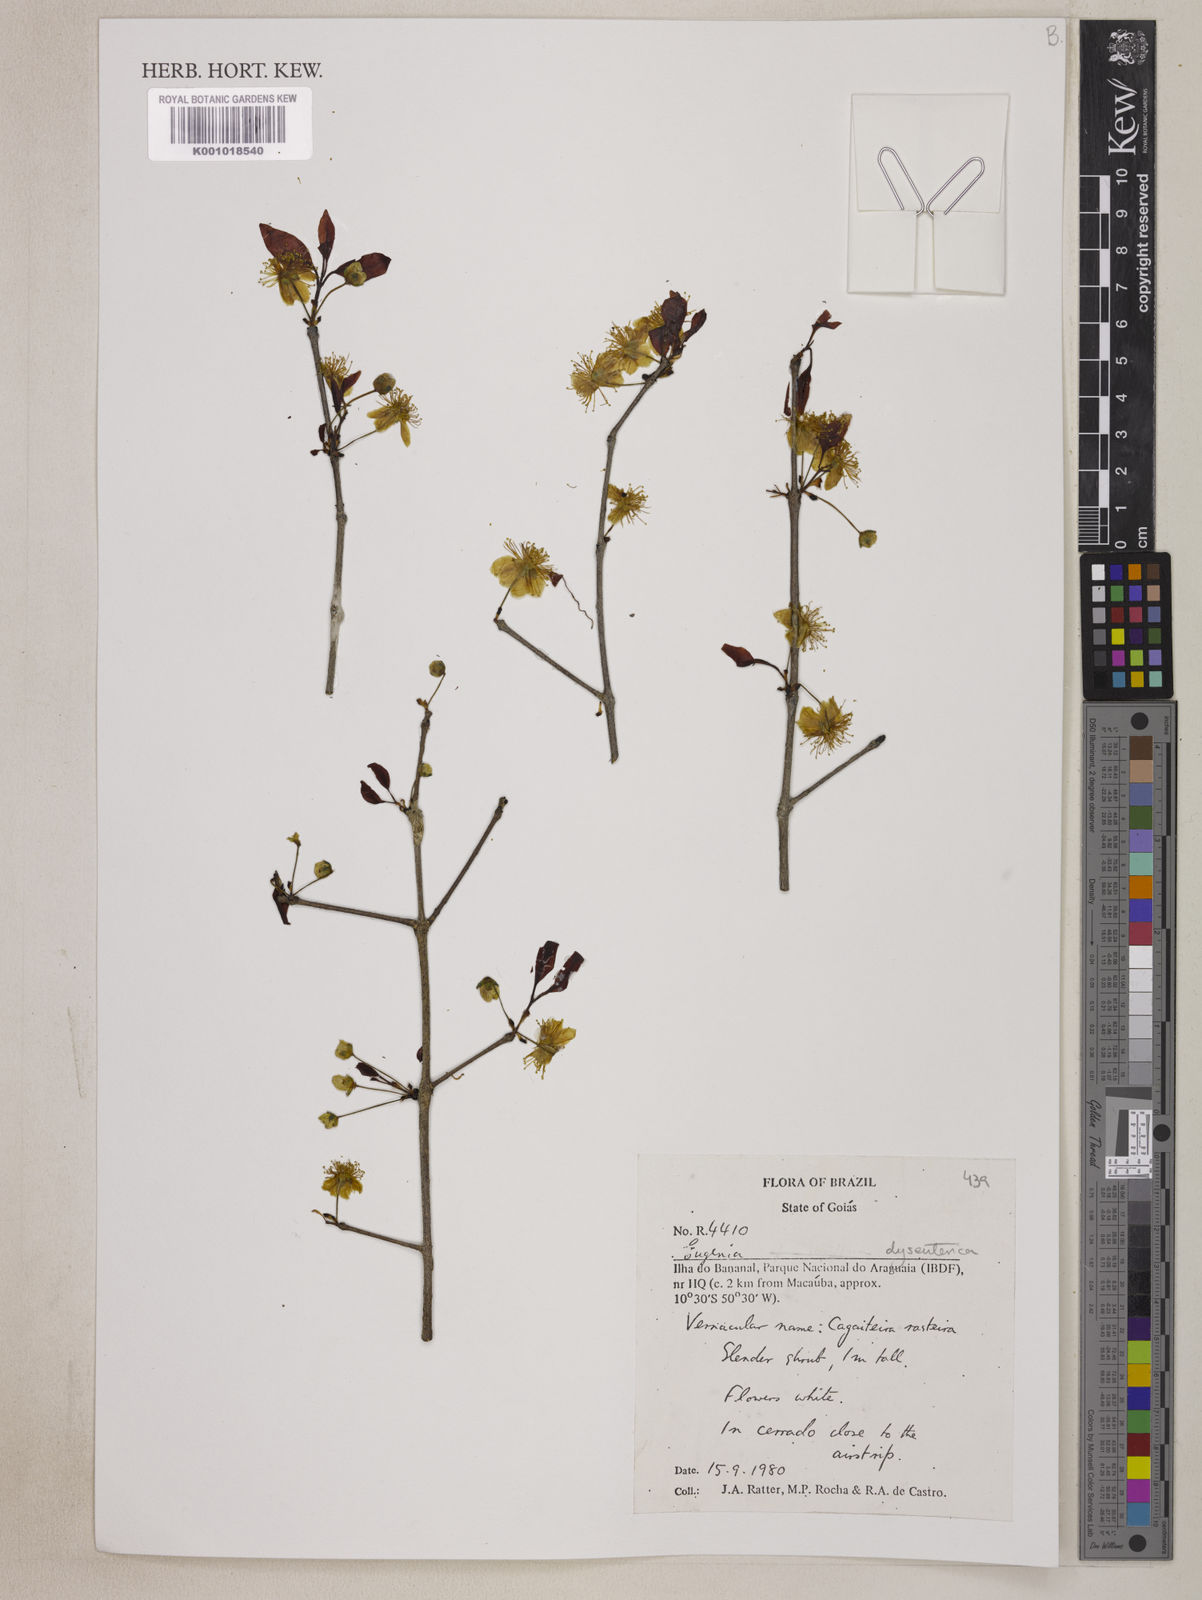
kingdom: Plantae
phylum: Tracheophyta
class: Magnoliopsida
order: Myrtales
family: Myrtaceae
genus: Eugenia
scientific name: Eugenia dysenterica
